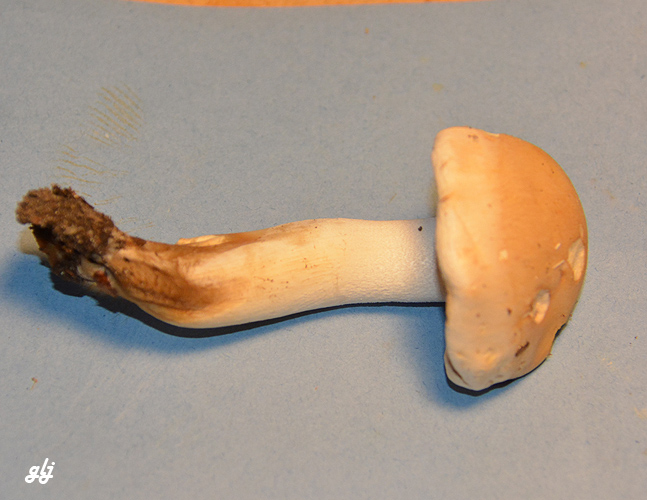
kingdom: Fungi
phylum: Basidiomycota
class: Agaricomycetes
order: Agaricales
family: Hymenogastraceae
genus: Hebeloma
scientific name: Hebeloma
